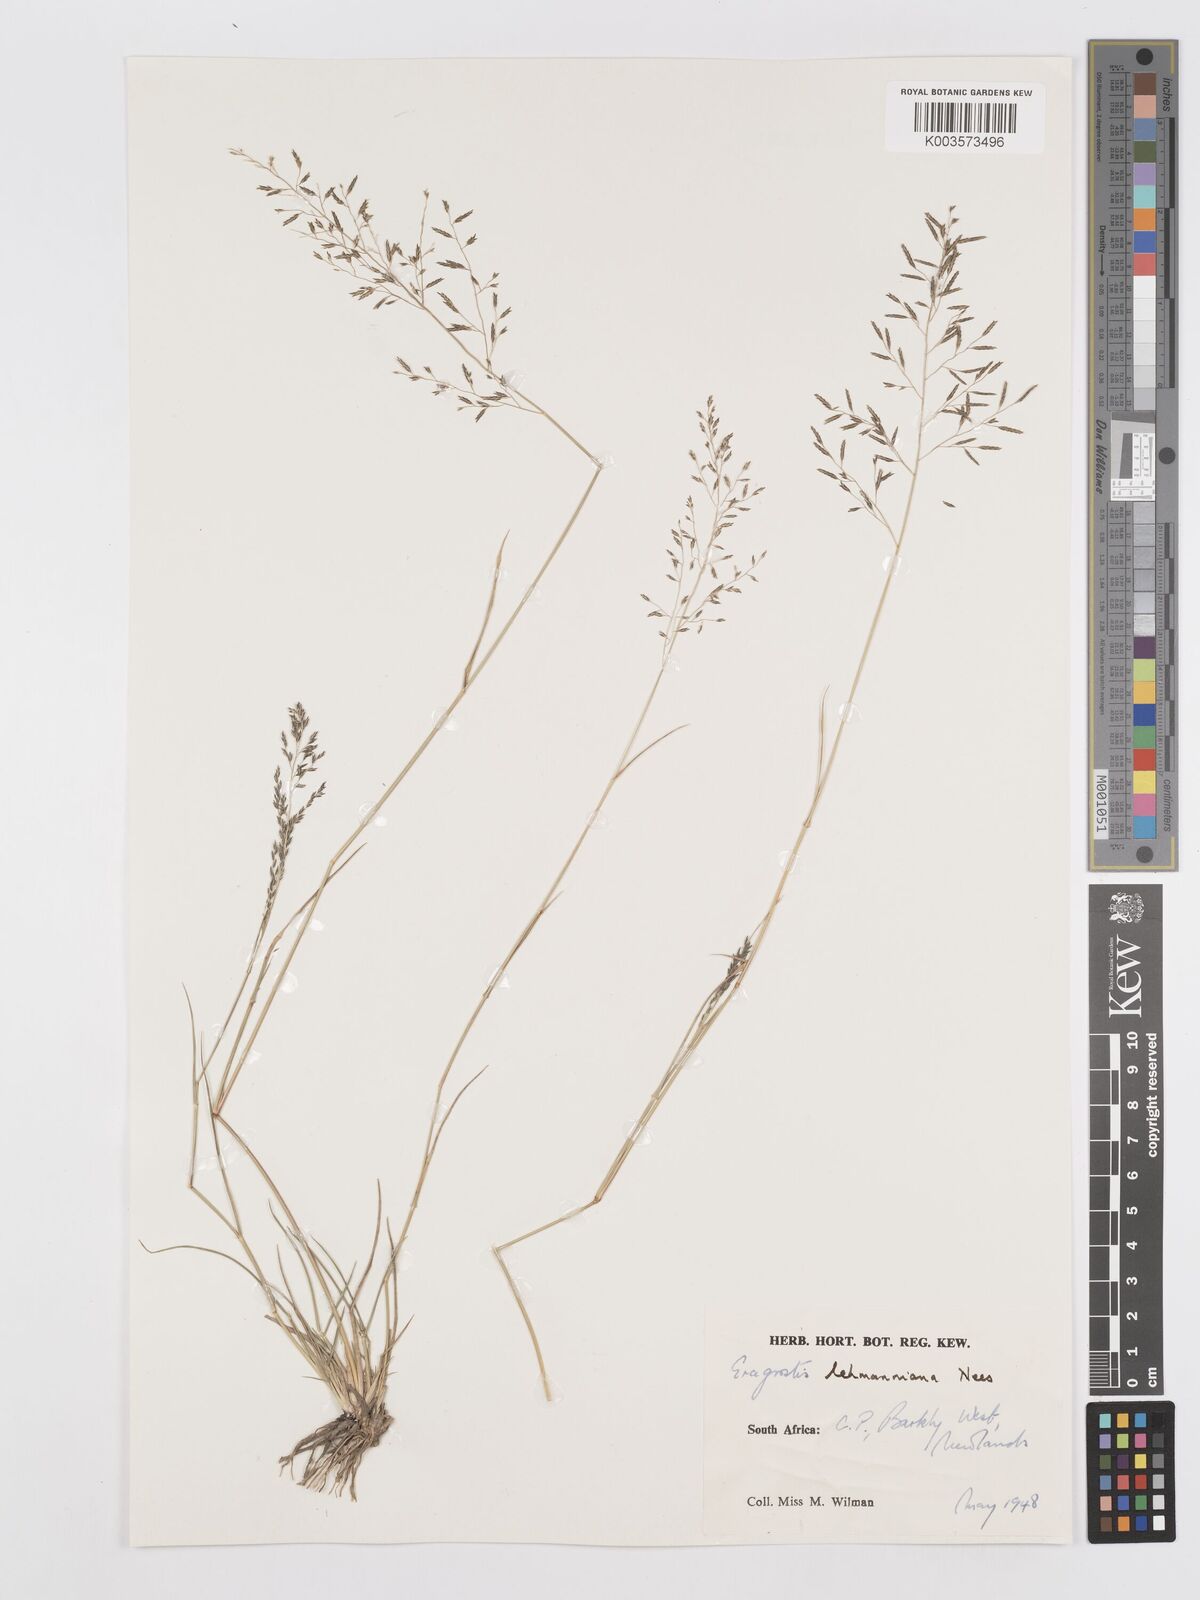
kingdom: Plantae
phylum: Tracheophyta
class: Liliopsida
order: Poales
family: Poaceae
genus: Eragrostis
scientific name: Eragrostis lehmanniana
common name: Lehmann lovegrass
